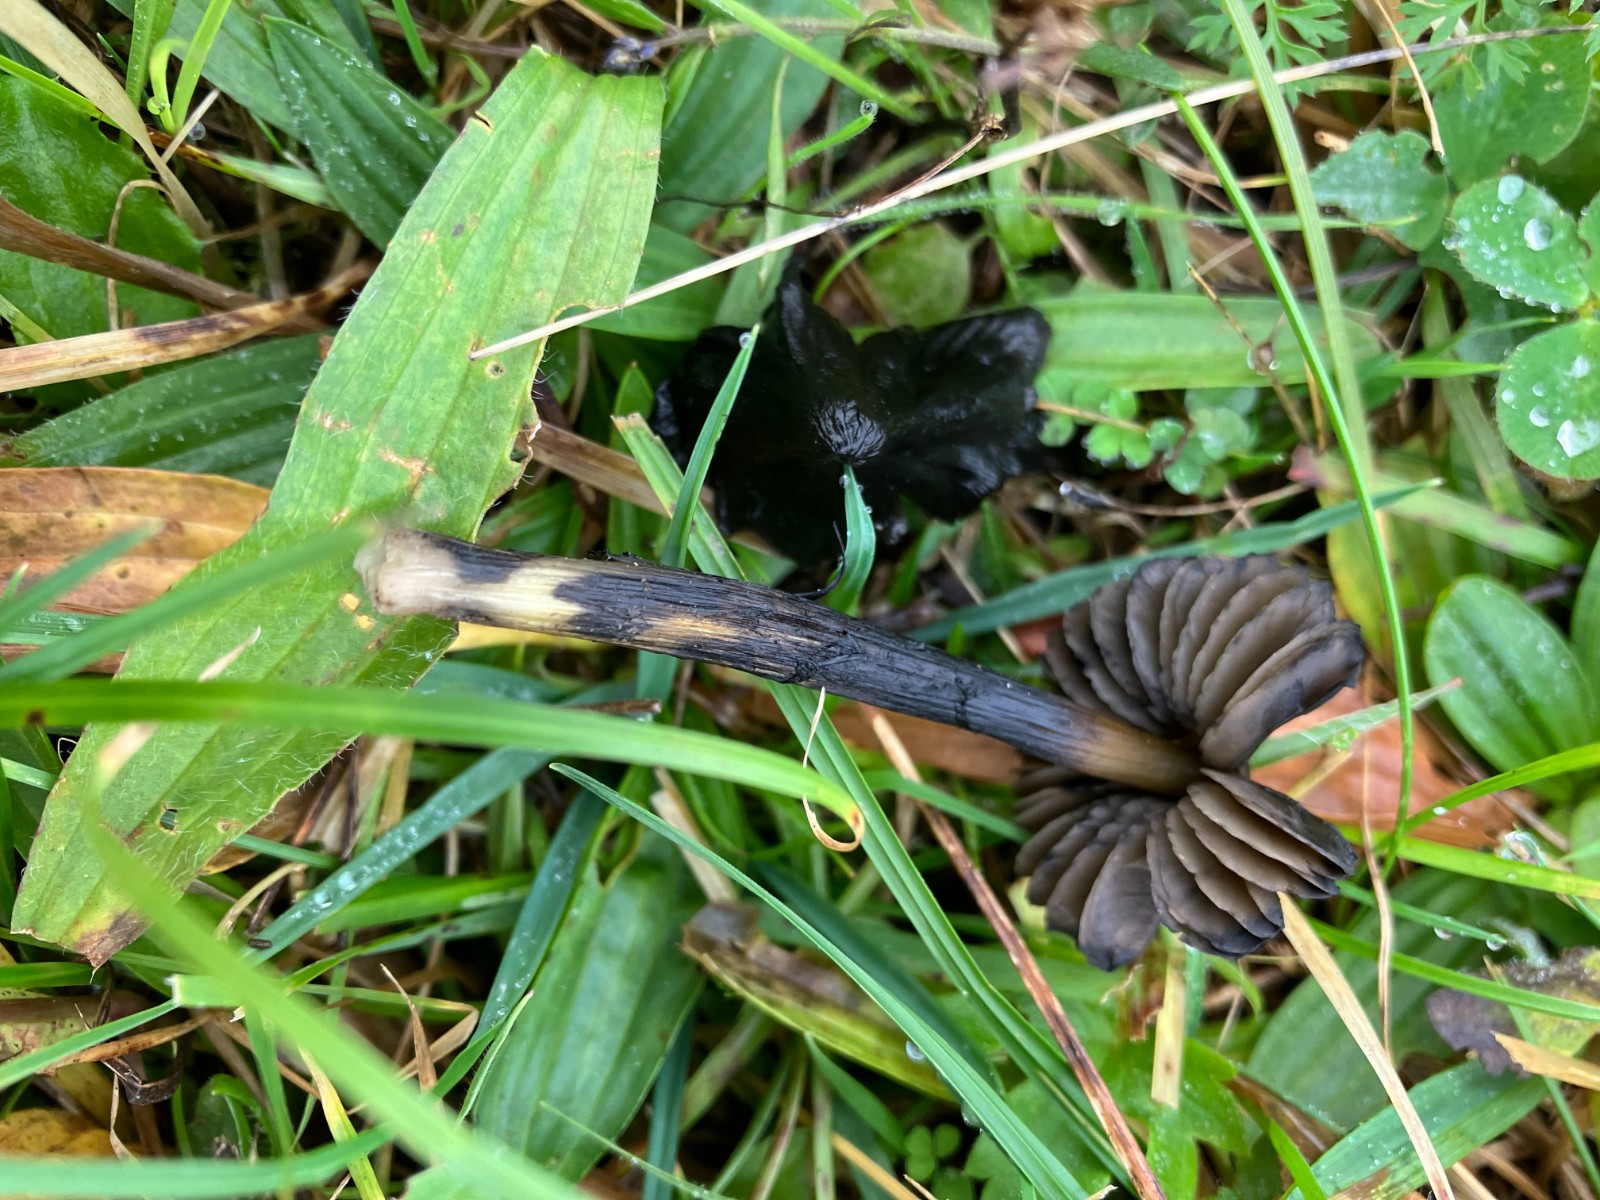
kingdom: Fungi
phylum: Basidiomycota
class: Agaricomycetes
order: Agaricales
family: Hygrophoraceae
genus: Hygrocybe
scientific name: Hygrocybe conica
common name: kegle-vokshat
